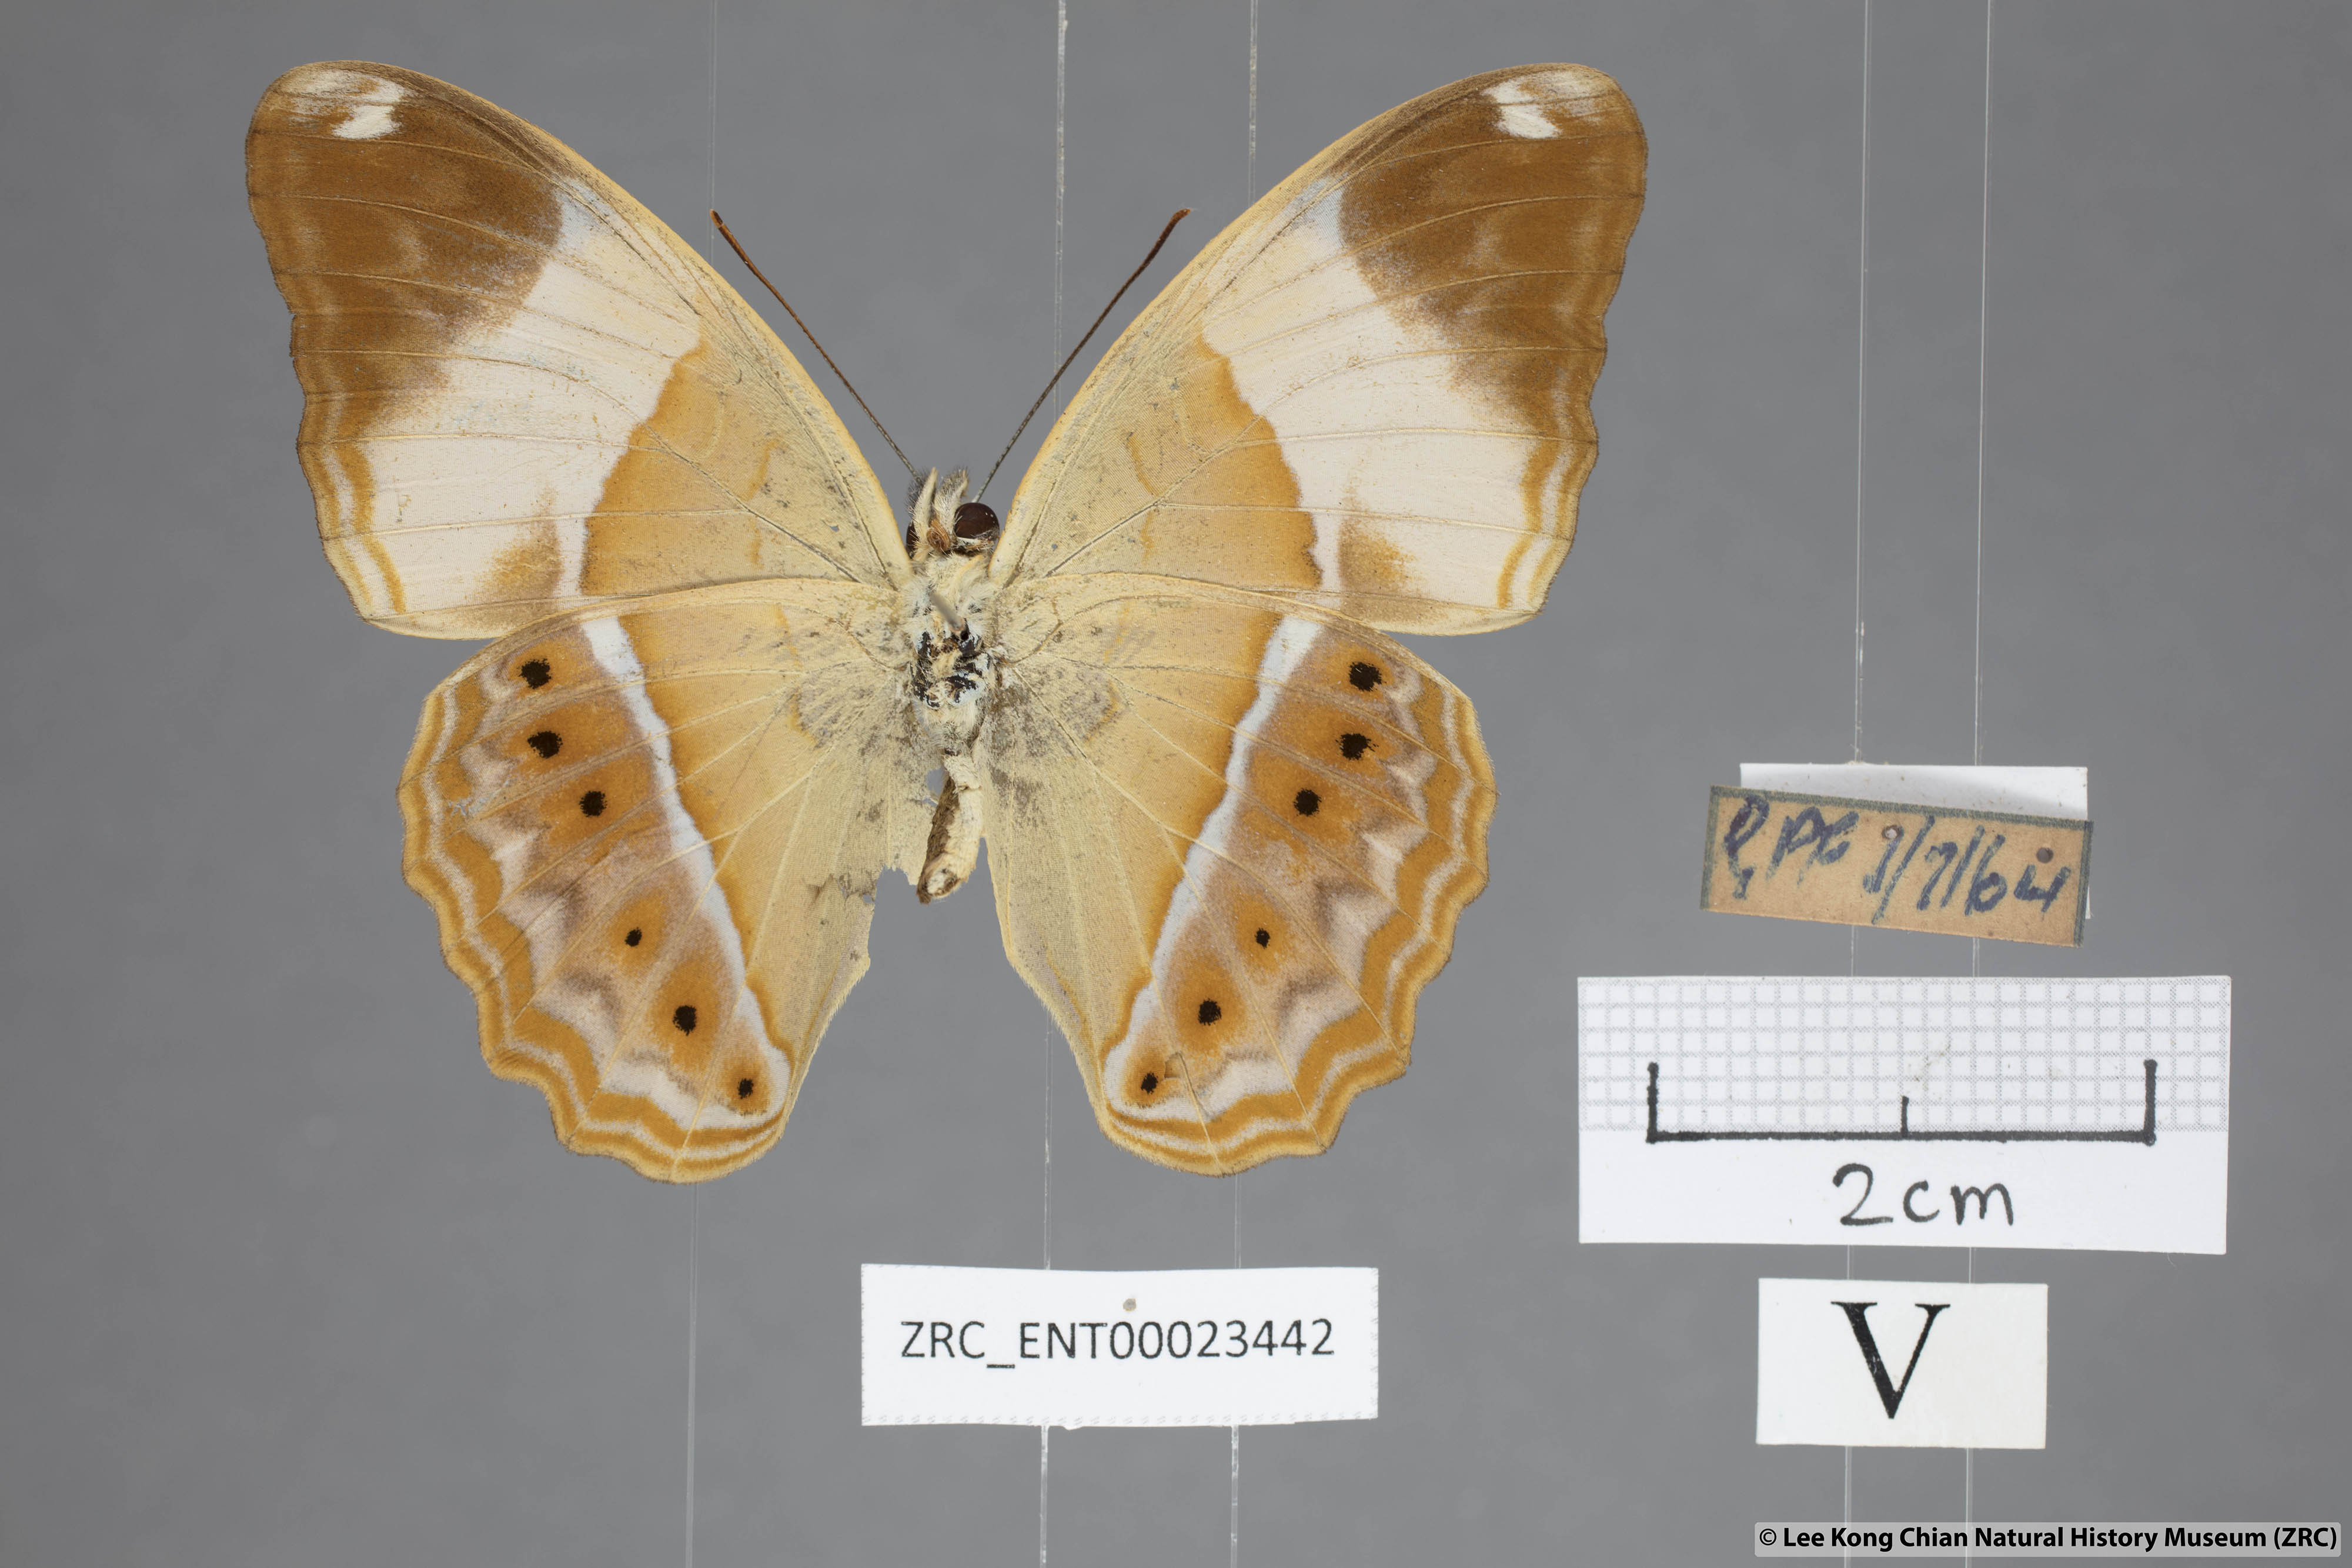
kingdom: Animalia
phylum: Arthropoda
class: Insecta
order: Lepidoptera
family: Nymphalidae
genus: Cirrochroa
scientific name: Cirrochroa orissa
